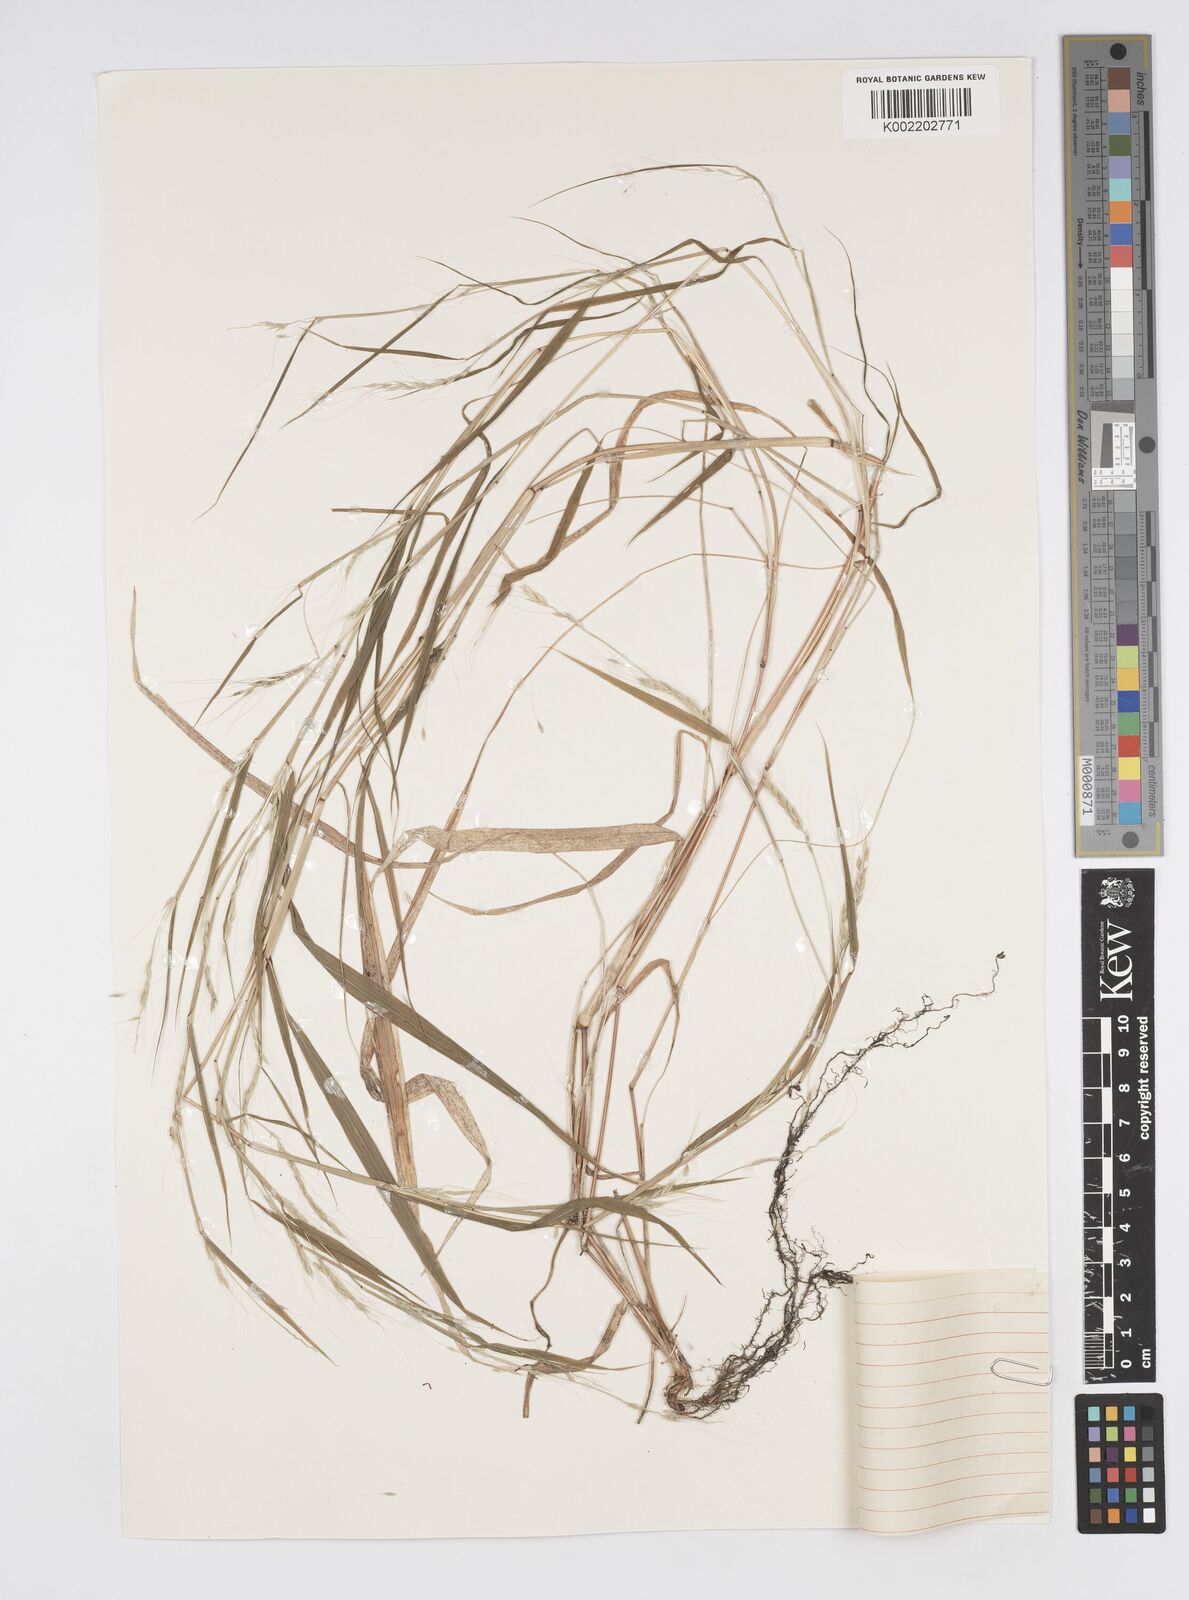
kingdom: Plantae
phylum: Tracheophyta
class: Liliopsida
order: Poales
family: Poaceae
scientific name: Poaceae
